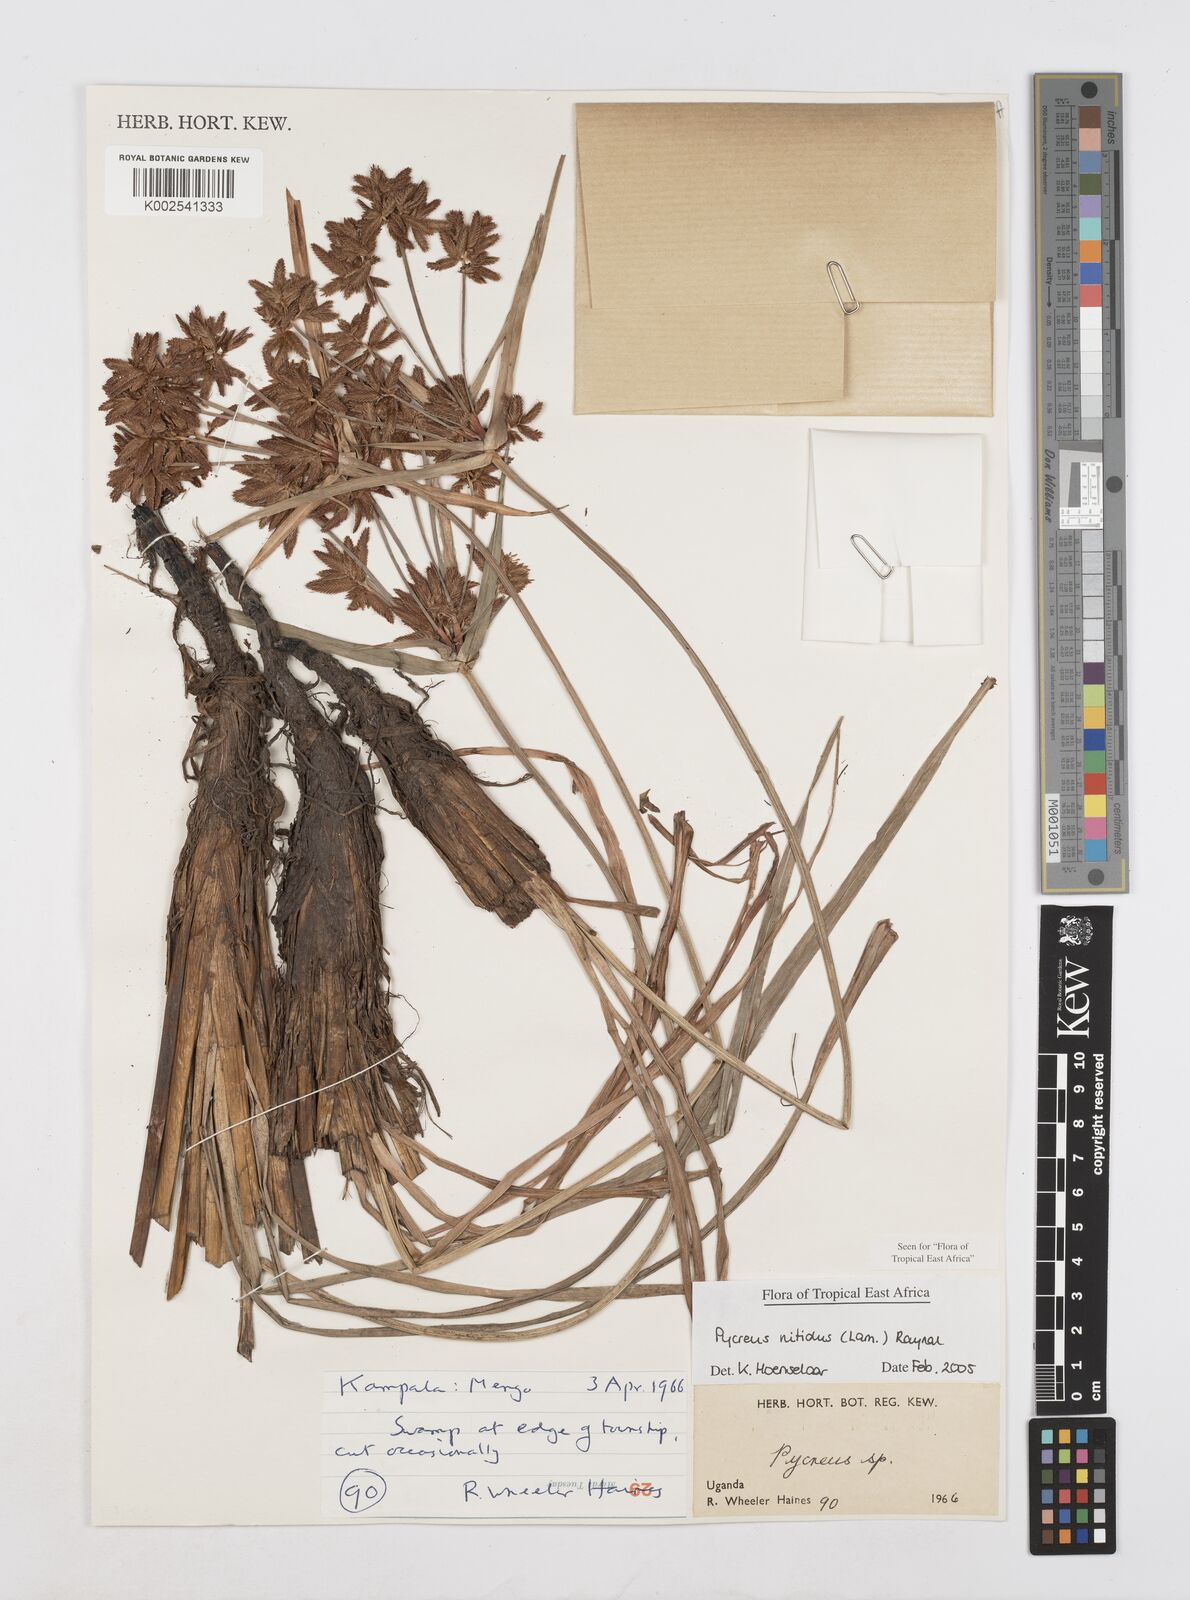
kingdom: Plantae
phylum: Tracheophyta
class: Liliopsida
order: Poales
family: Cyperaceae
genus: Cyperus
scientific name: Cyperus nitidus
